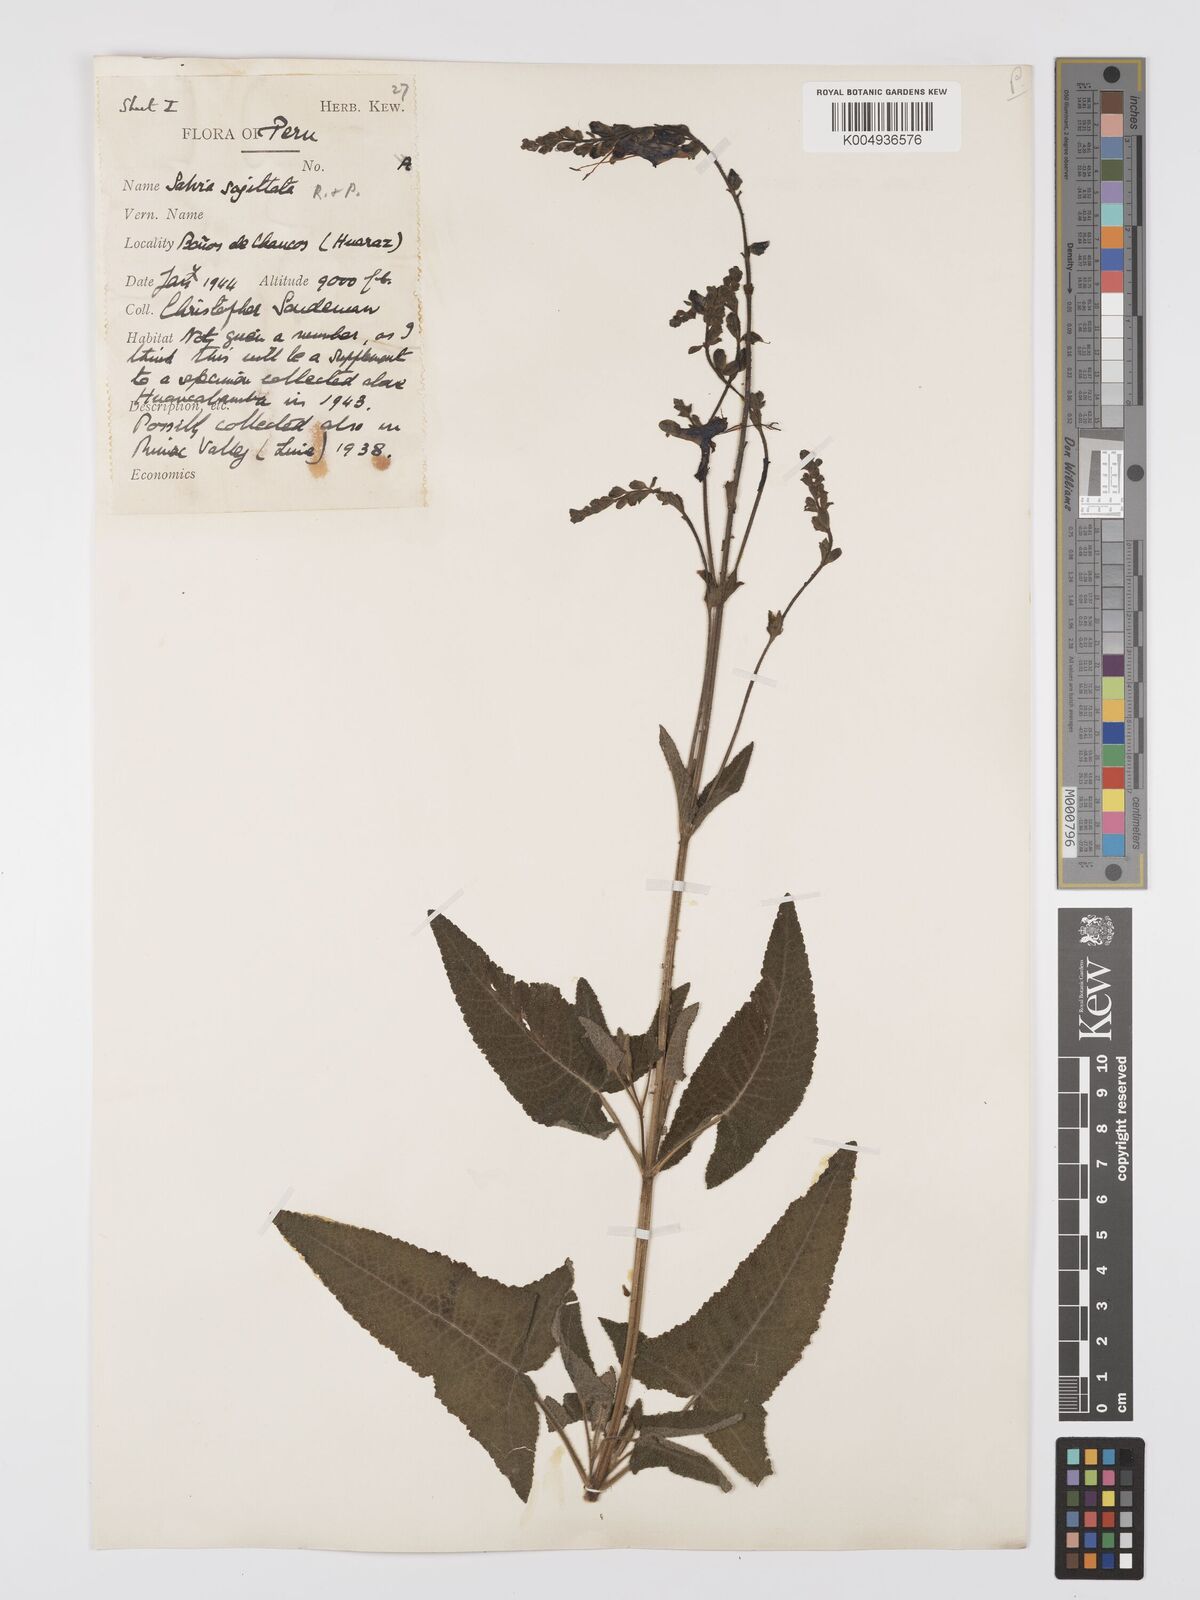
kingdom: Plantae
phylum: Tracheophyta
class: Magnoliopsida
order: Lamiales
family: Lamiaceae
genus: Salvia
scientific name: Salvia sagittata
